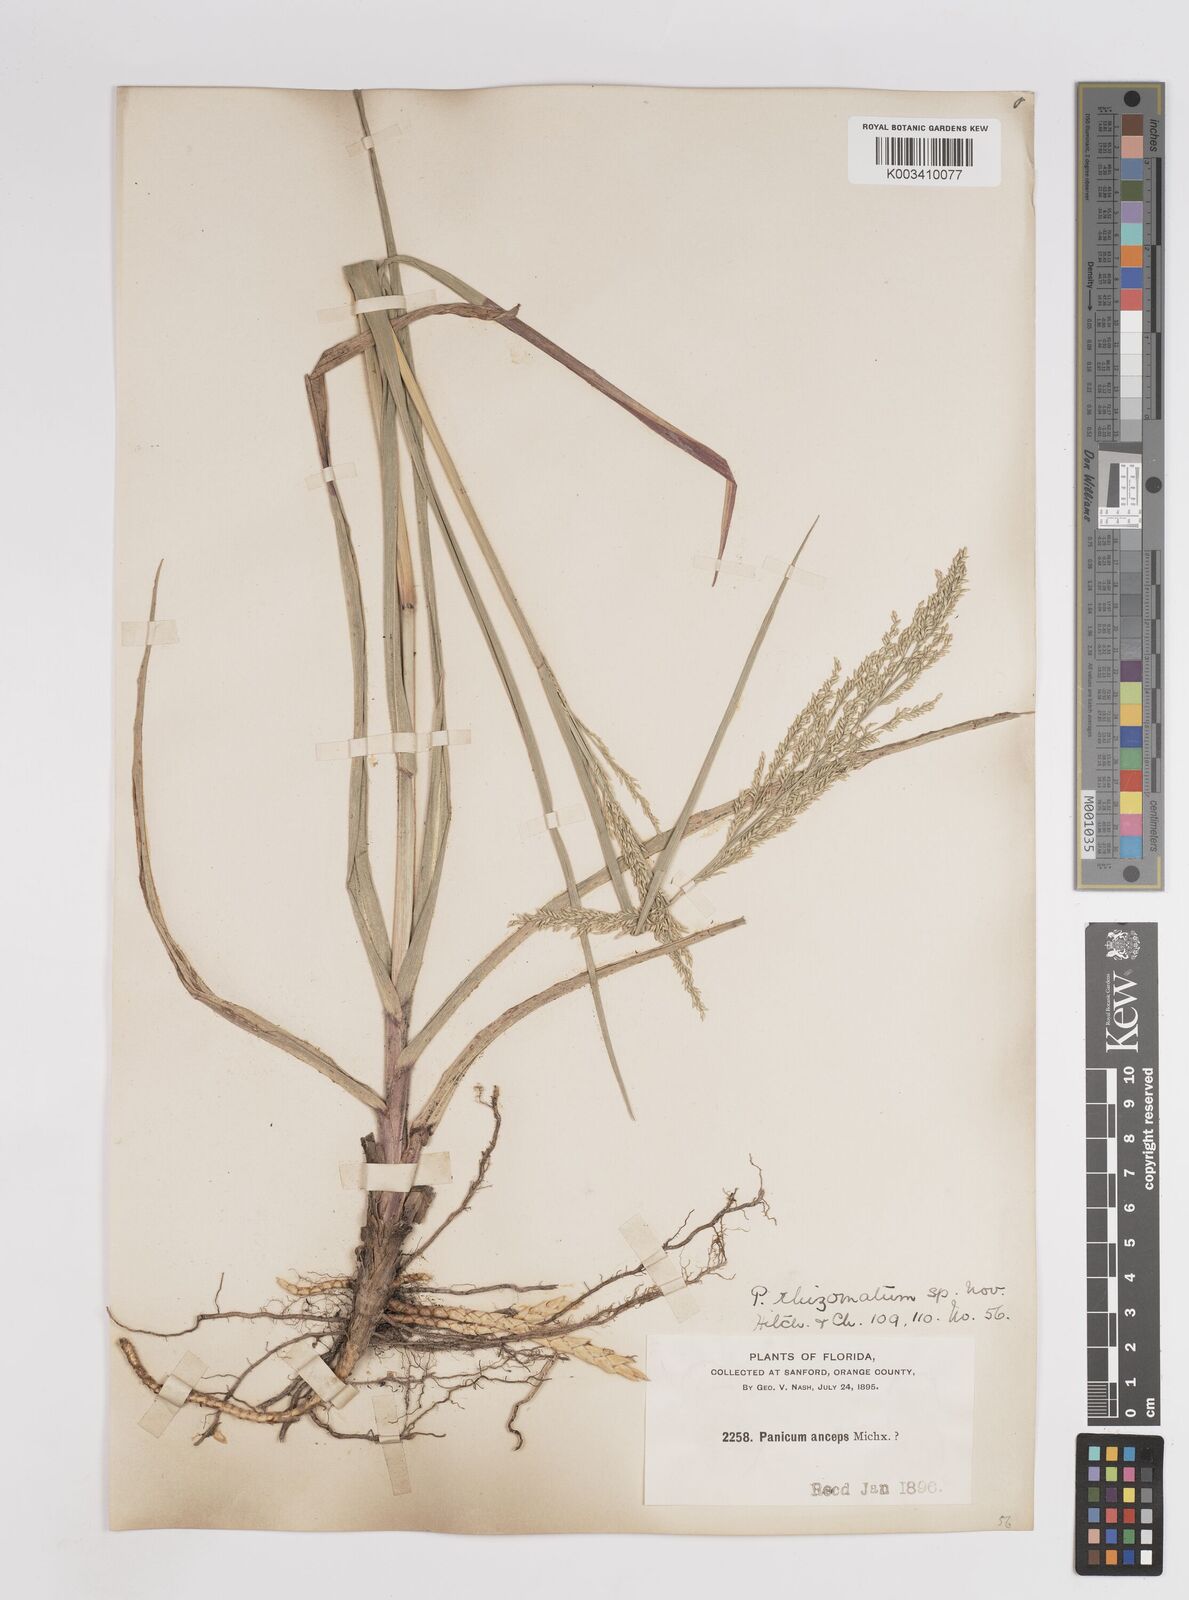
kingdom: Plantae
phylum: Tracheophyta
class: Liliopsida
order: Poales
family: Poaceae
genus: Coleataenia
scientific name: Coleataenia anceps
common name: Beaked panic grass
